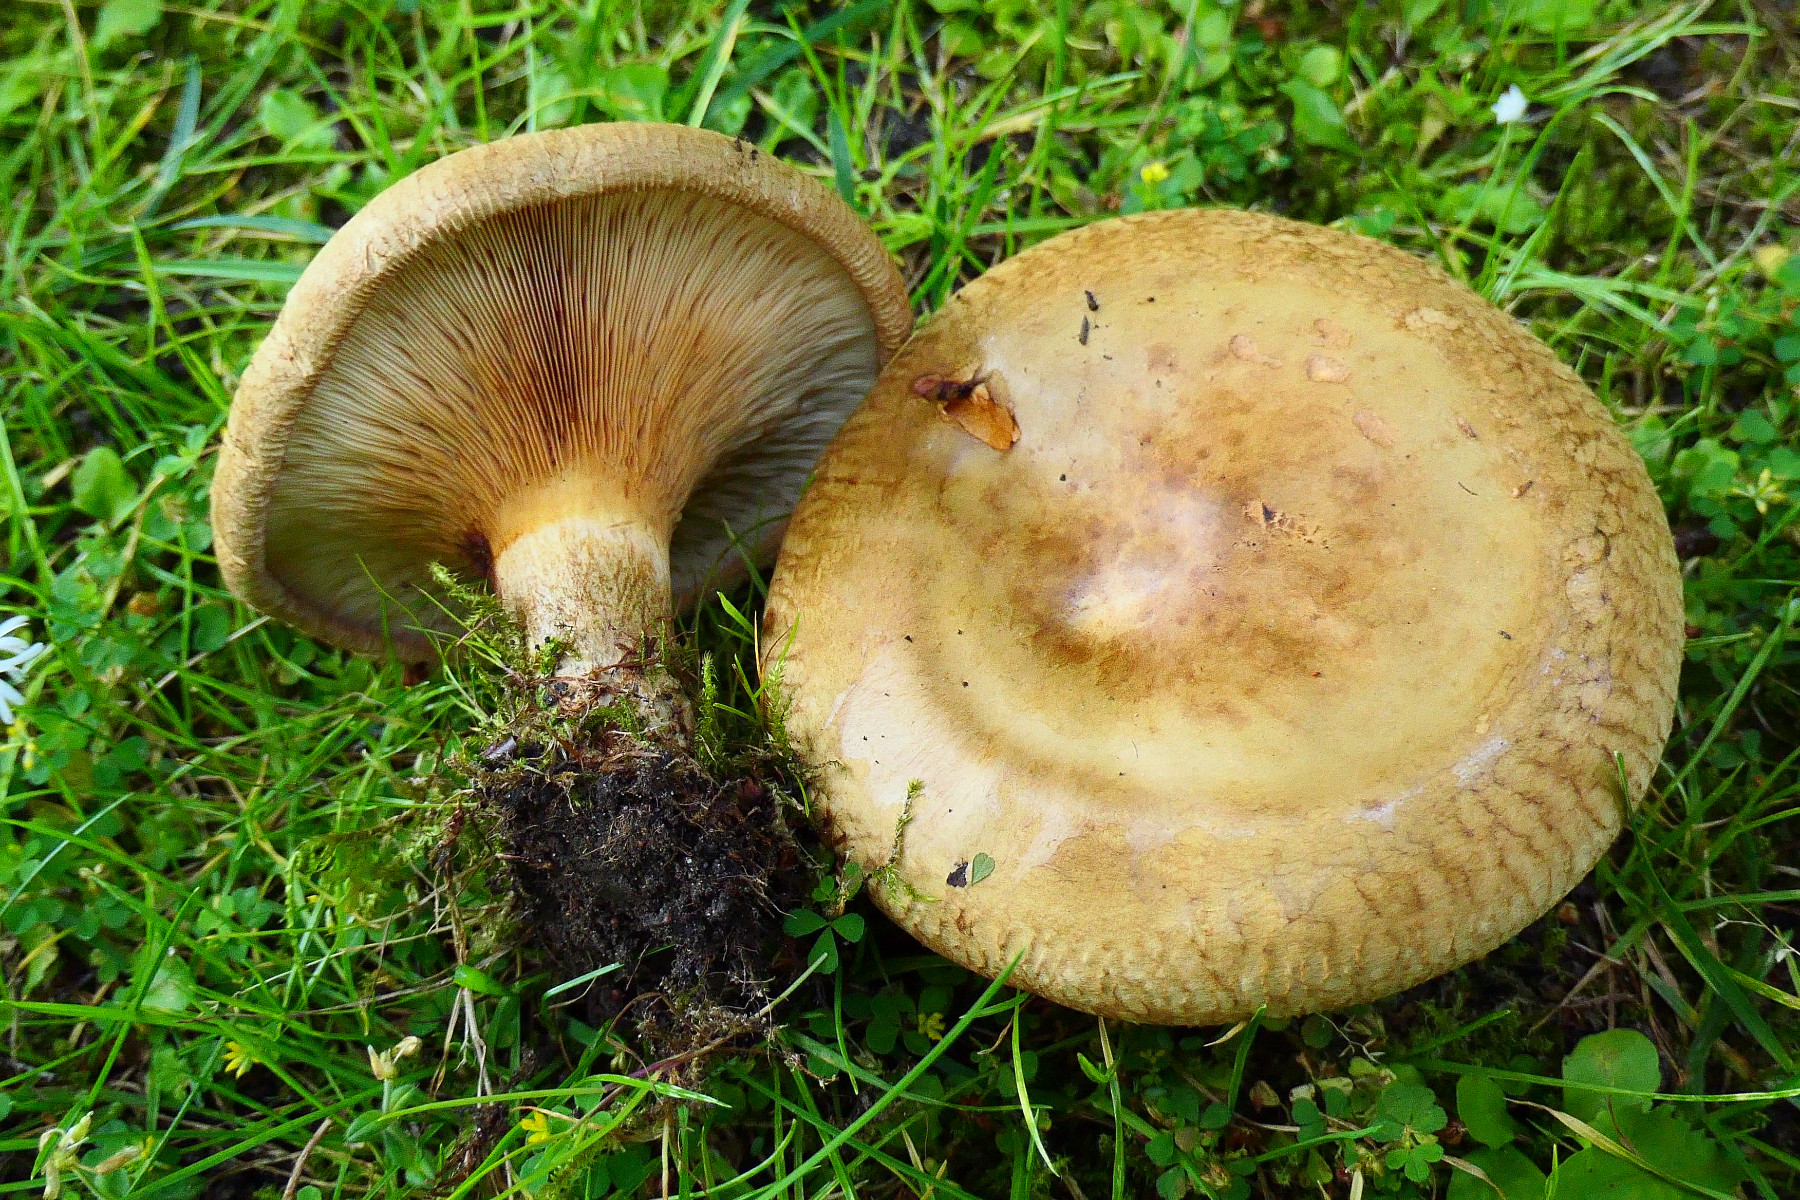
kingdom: Fungi
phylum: Basidiomycota
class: Agaricomycetes
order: Boletales
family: Paxillaceae
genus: Paxillus
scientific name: Paxillus involutus
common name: almindelig netbladhat
